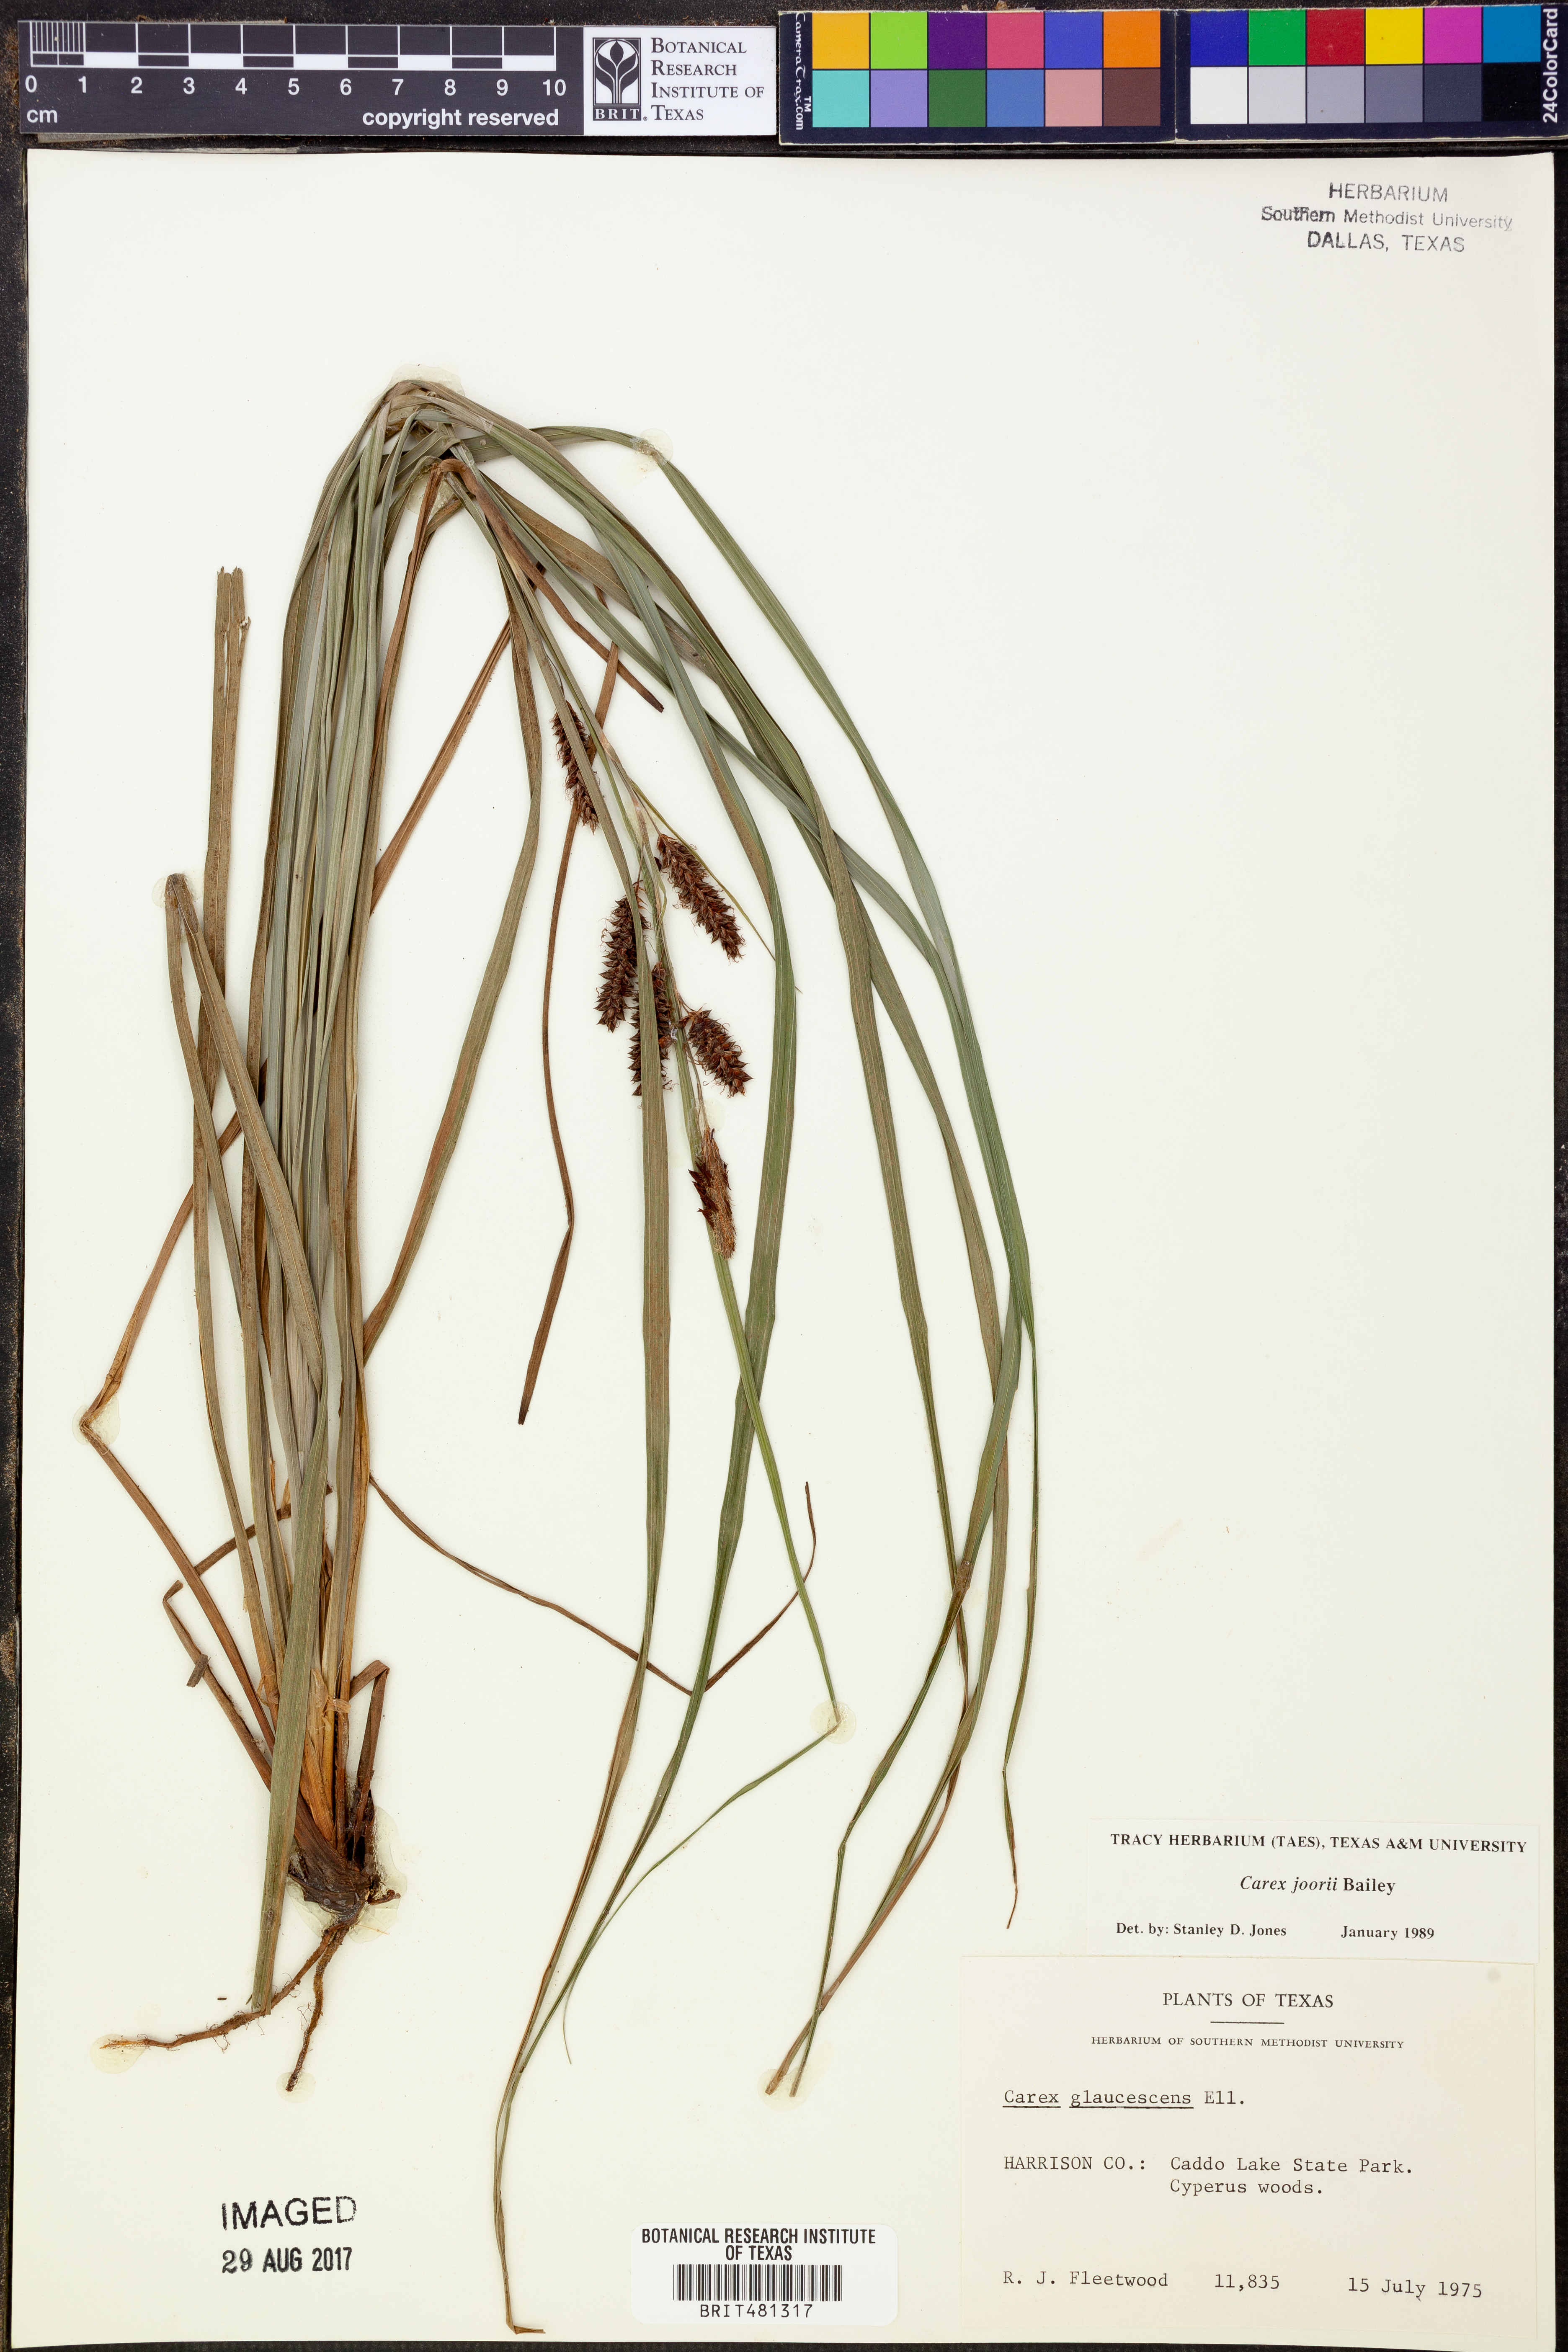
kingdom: Plantae
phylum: Tracheophyta
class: Liliopsida
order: Poales
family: Cyperaceae
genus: Carex
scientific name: Carex joorii
